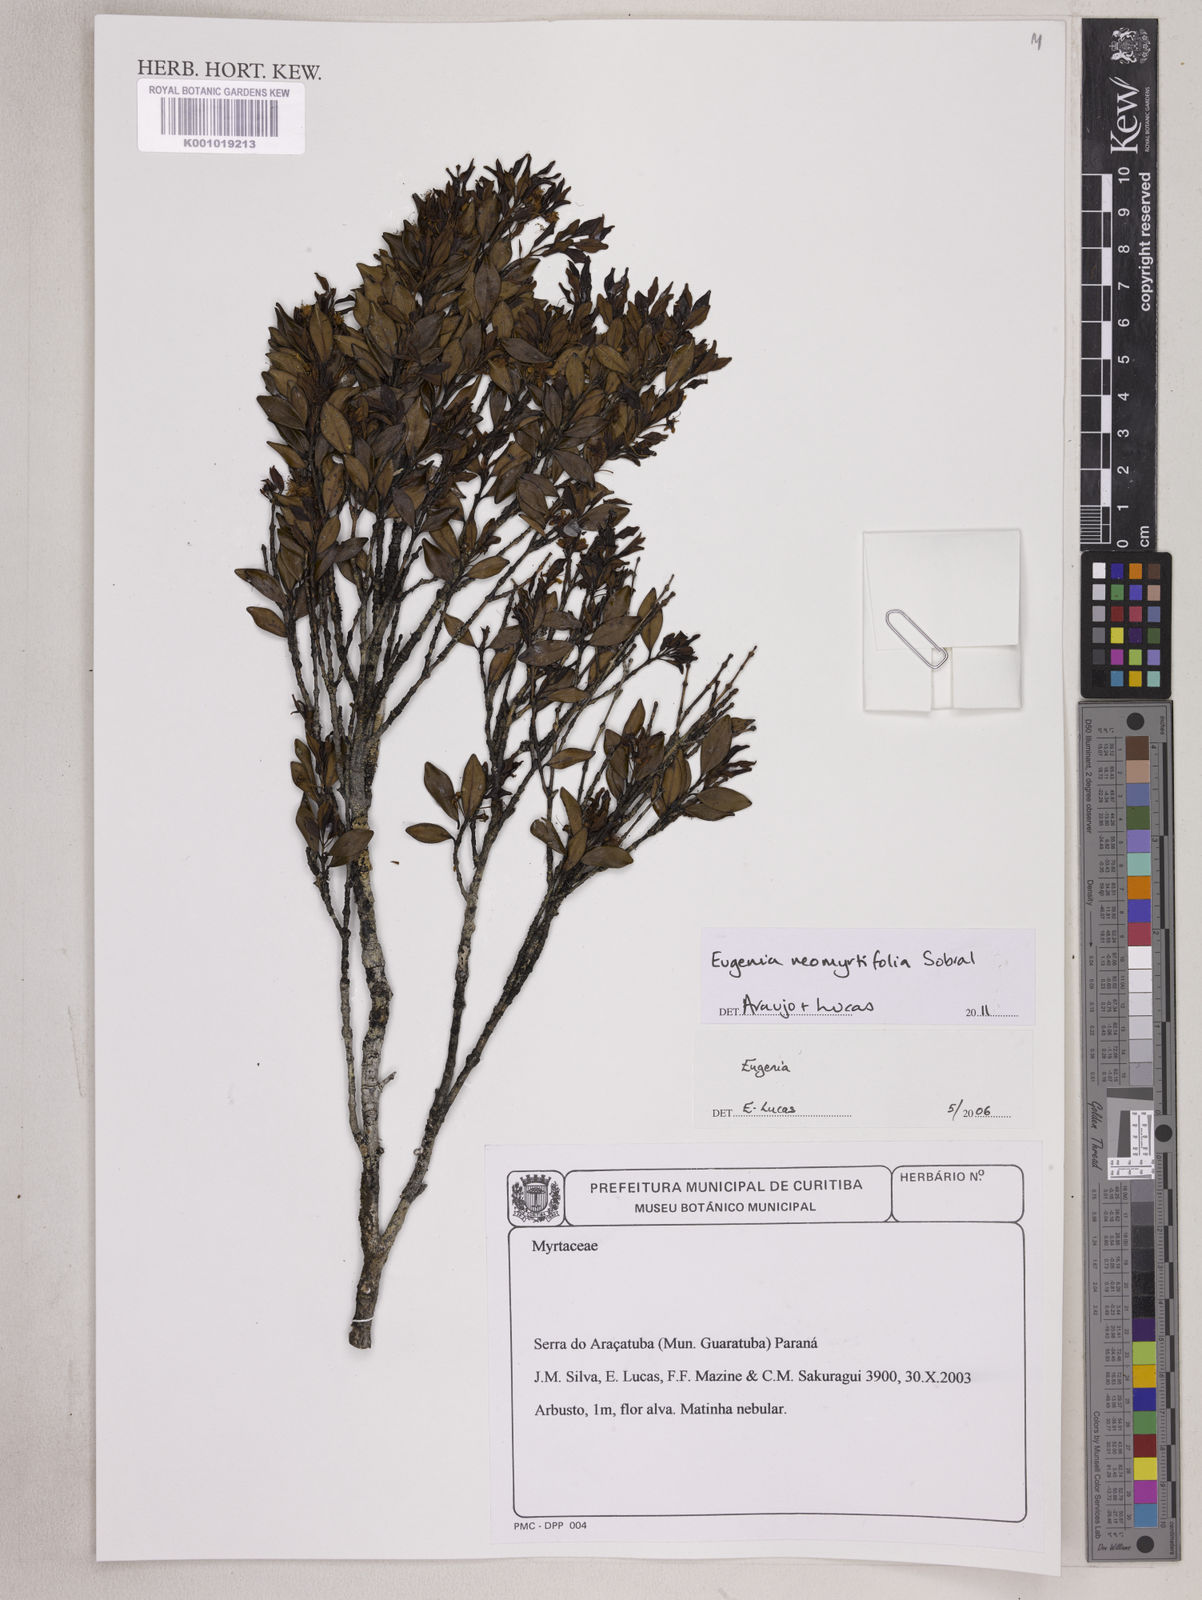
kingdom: Plantae
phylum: Tracheophyta
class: Magnoliopsida
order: Myrtales
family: Myrtaceae
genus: Eugenia
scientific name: Eugenia neomyrtifolia
